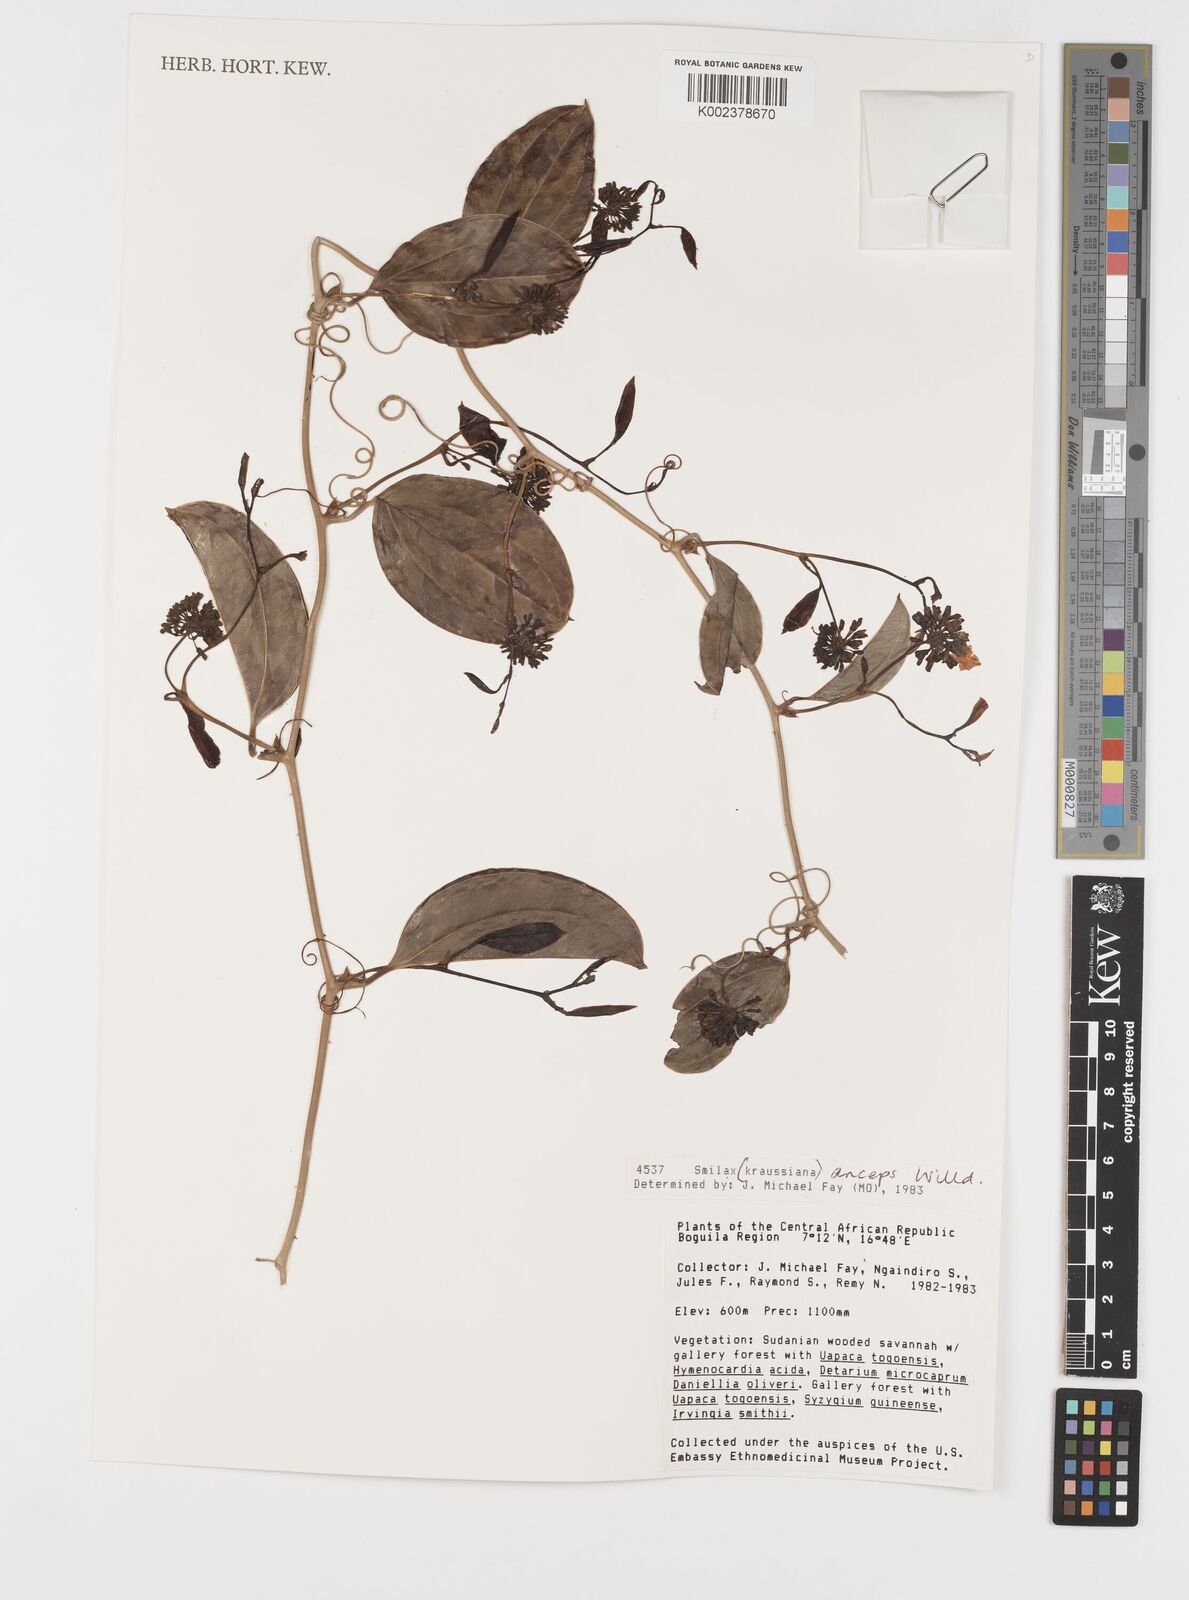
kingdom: Plantae
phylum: Tracheophyta
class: Liliopsida
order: Liliales
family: Smilacaceae
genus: Smilax
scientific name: Smilax anceps
